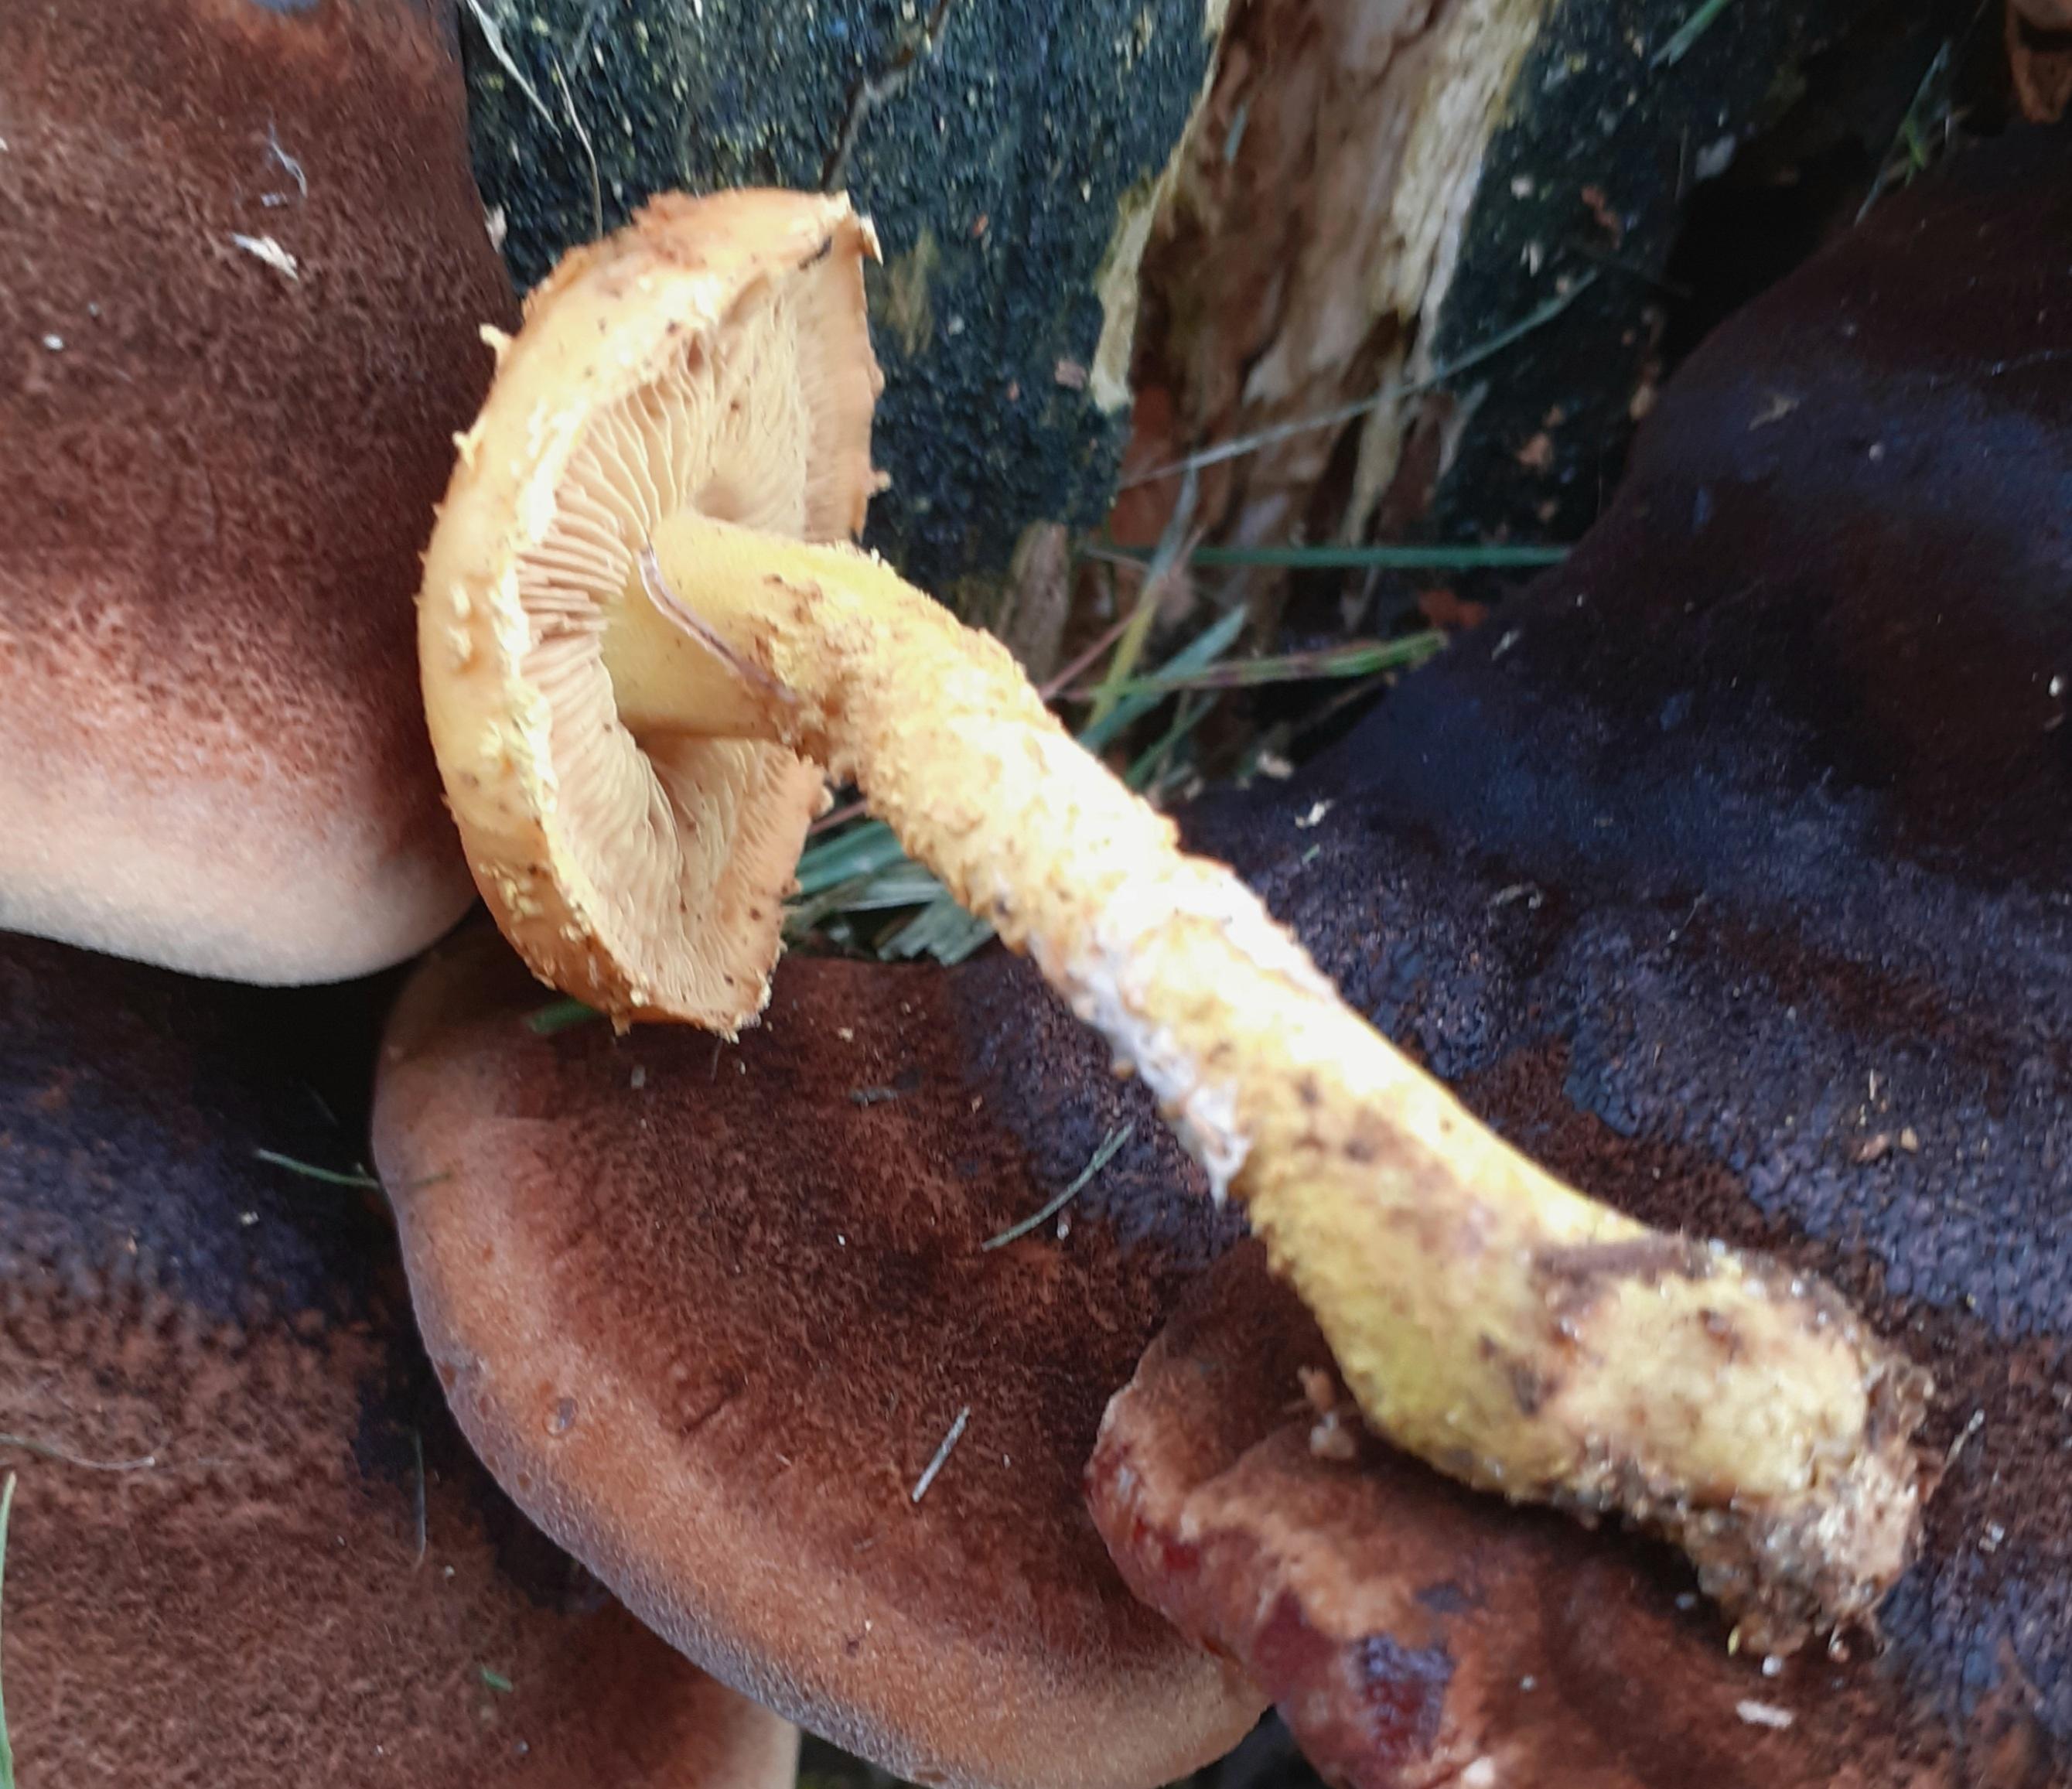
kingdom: Fungi
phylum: Basidiomycota
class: Agaricomycetes
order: Agaricales
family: Strophariaceae
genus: Pholiota
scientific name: Pholiota flammans
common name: flamme-skælhat
